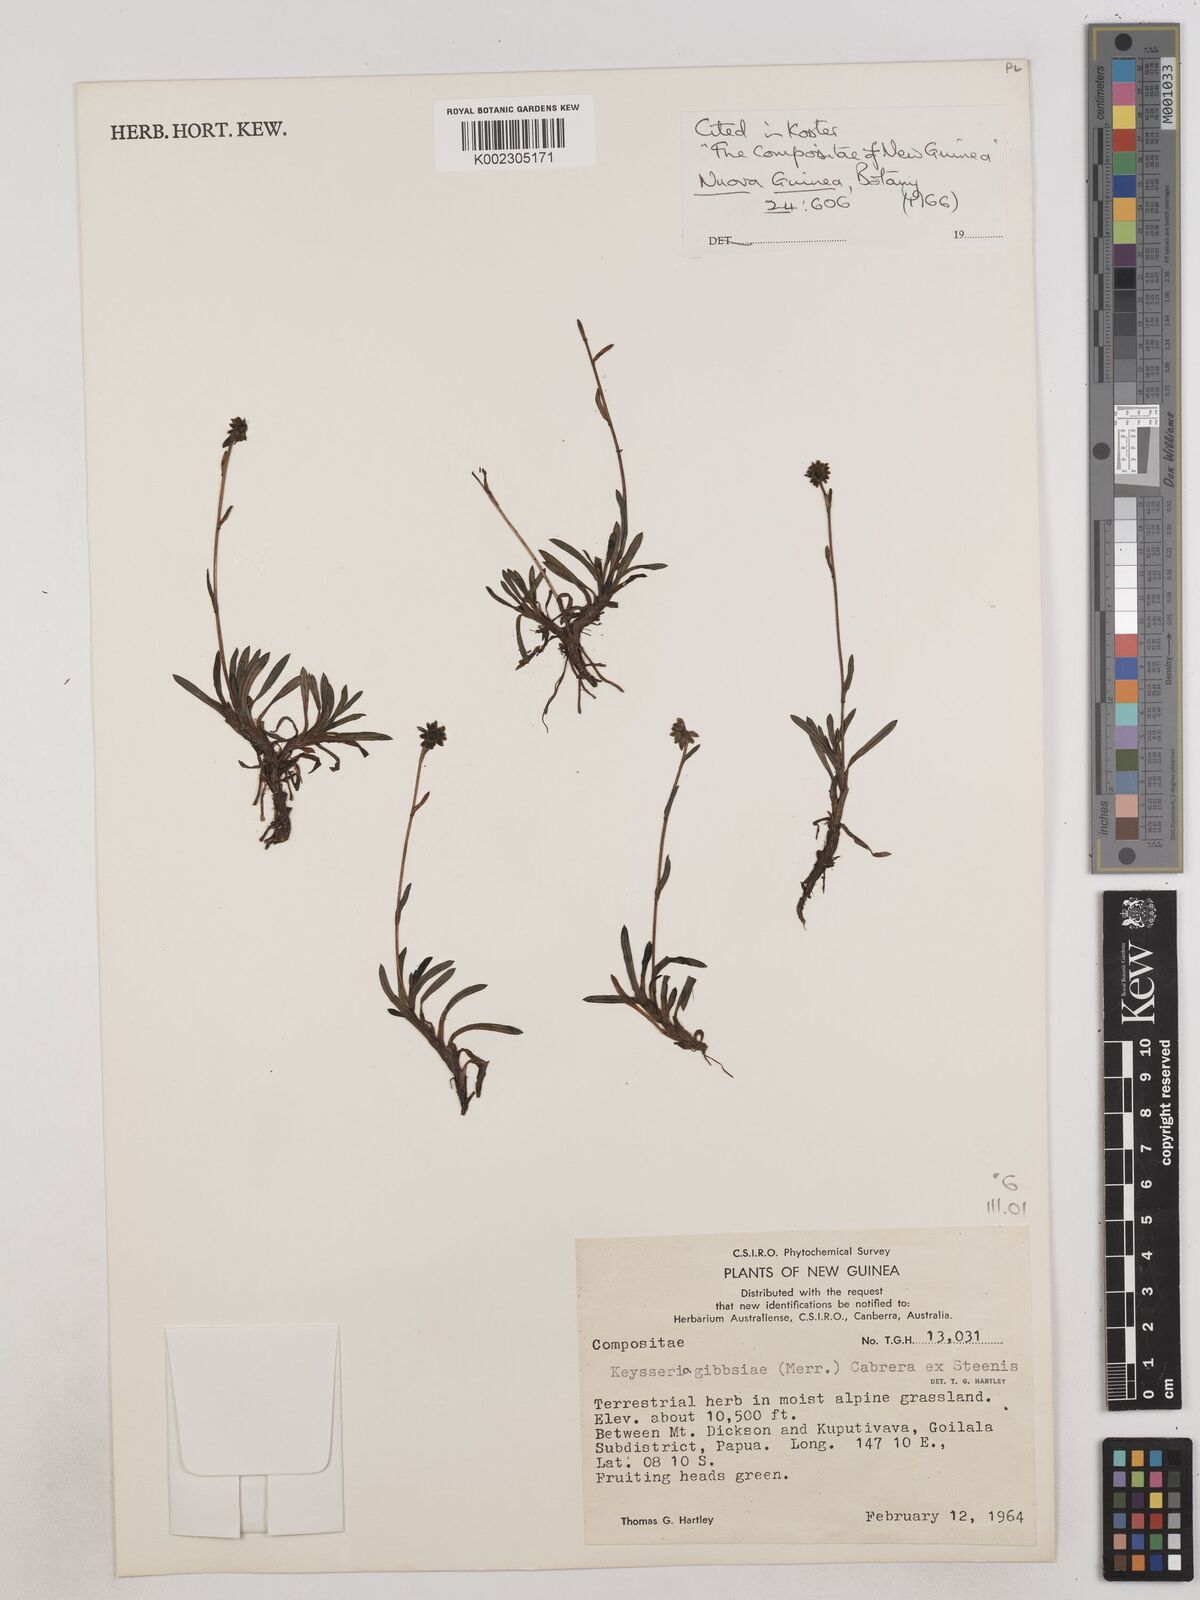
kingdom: Plantae
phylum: Tracheophyta
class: Magnoliopsida
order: Asterales
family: Asteraceae
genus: Keysseria
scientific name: Keysseria gibbsiae
